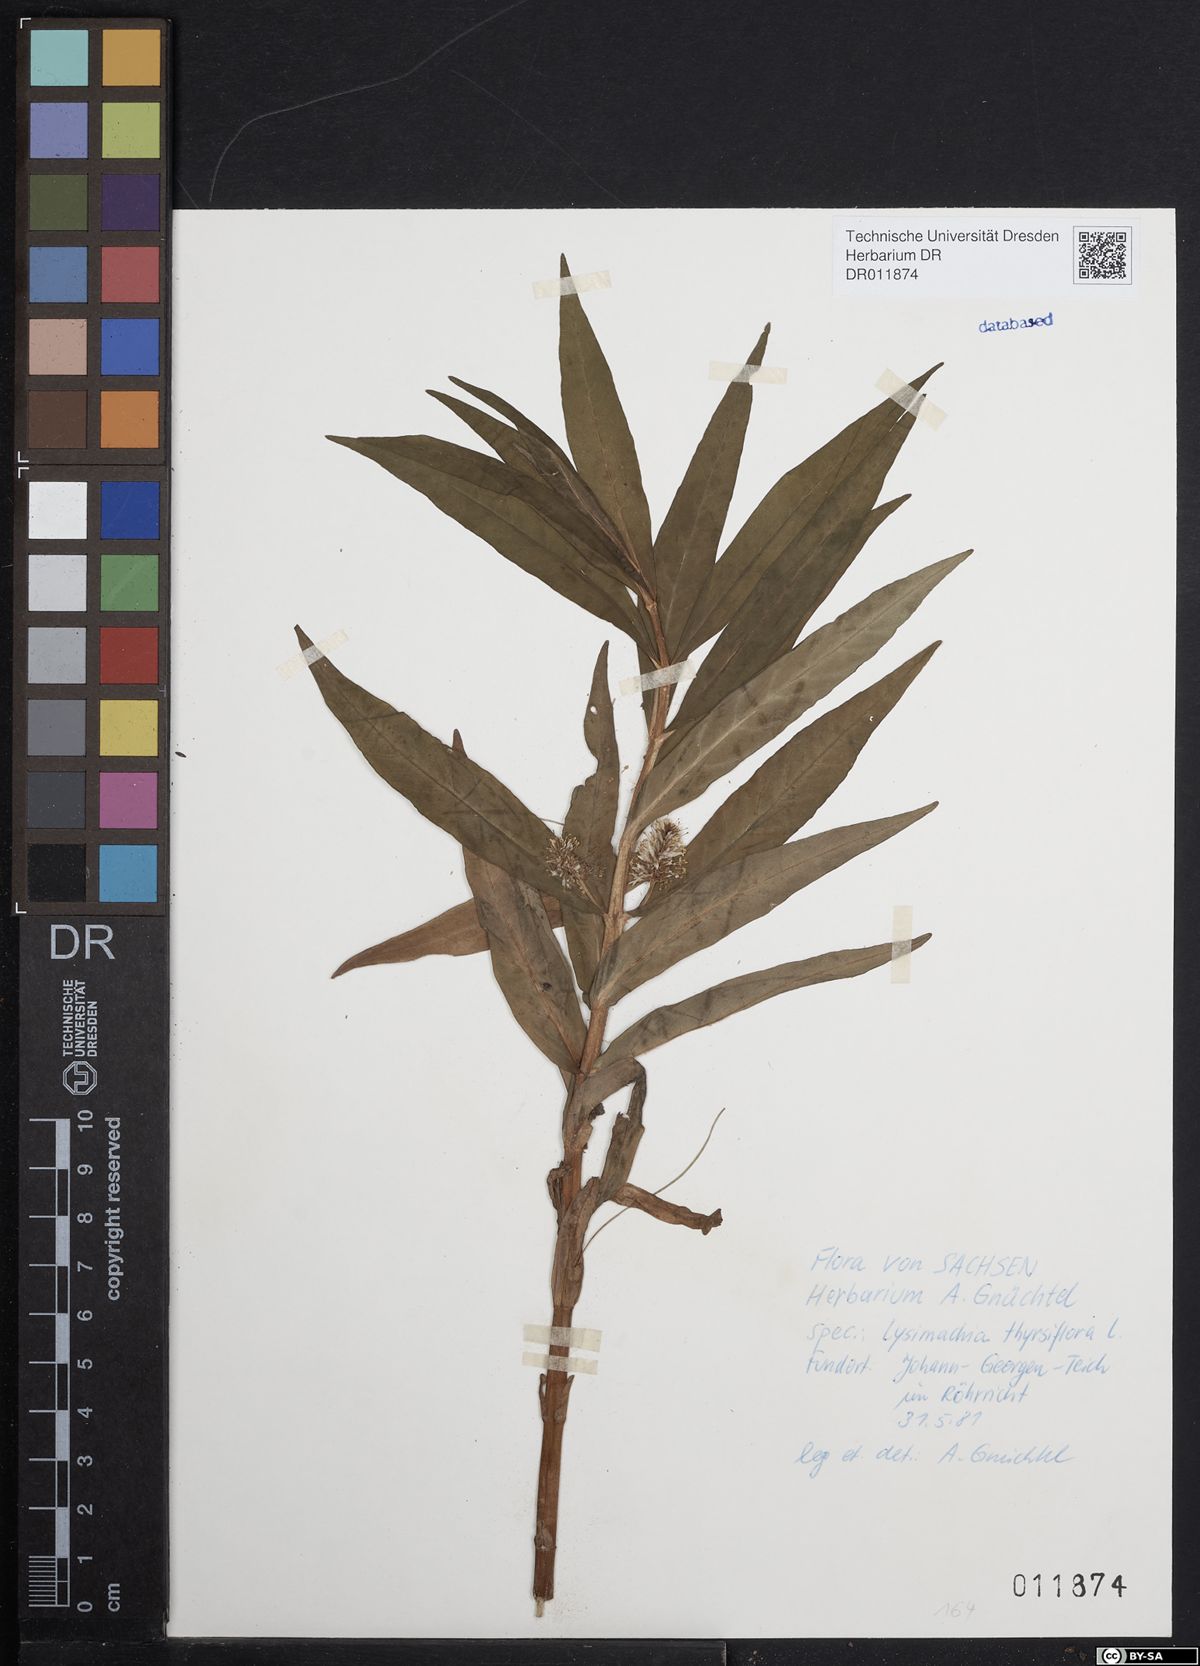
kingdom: Plantae
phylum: Tracheophyta
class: Magnoliopsida
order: Ericales
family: Primulaceae
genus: Lysimachia
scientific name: Lysimachia thyrsiflora
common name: Tufted loosestrife
